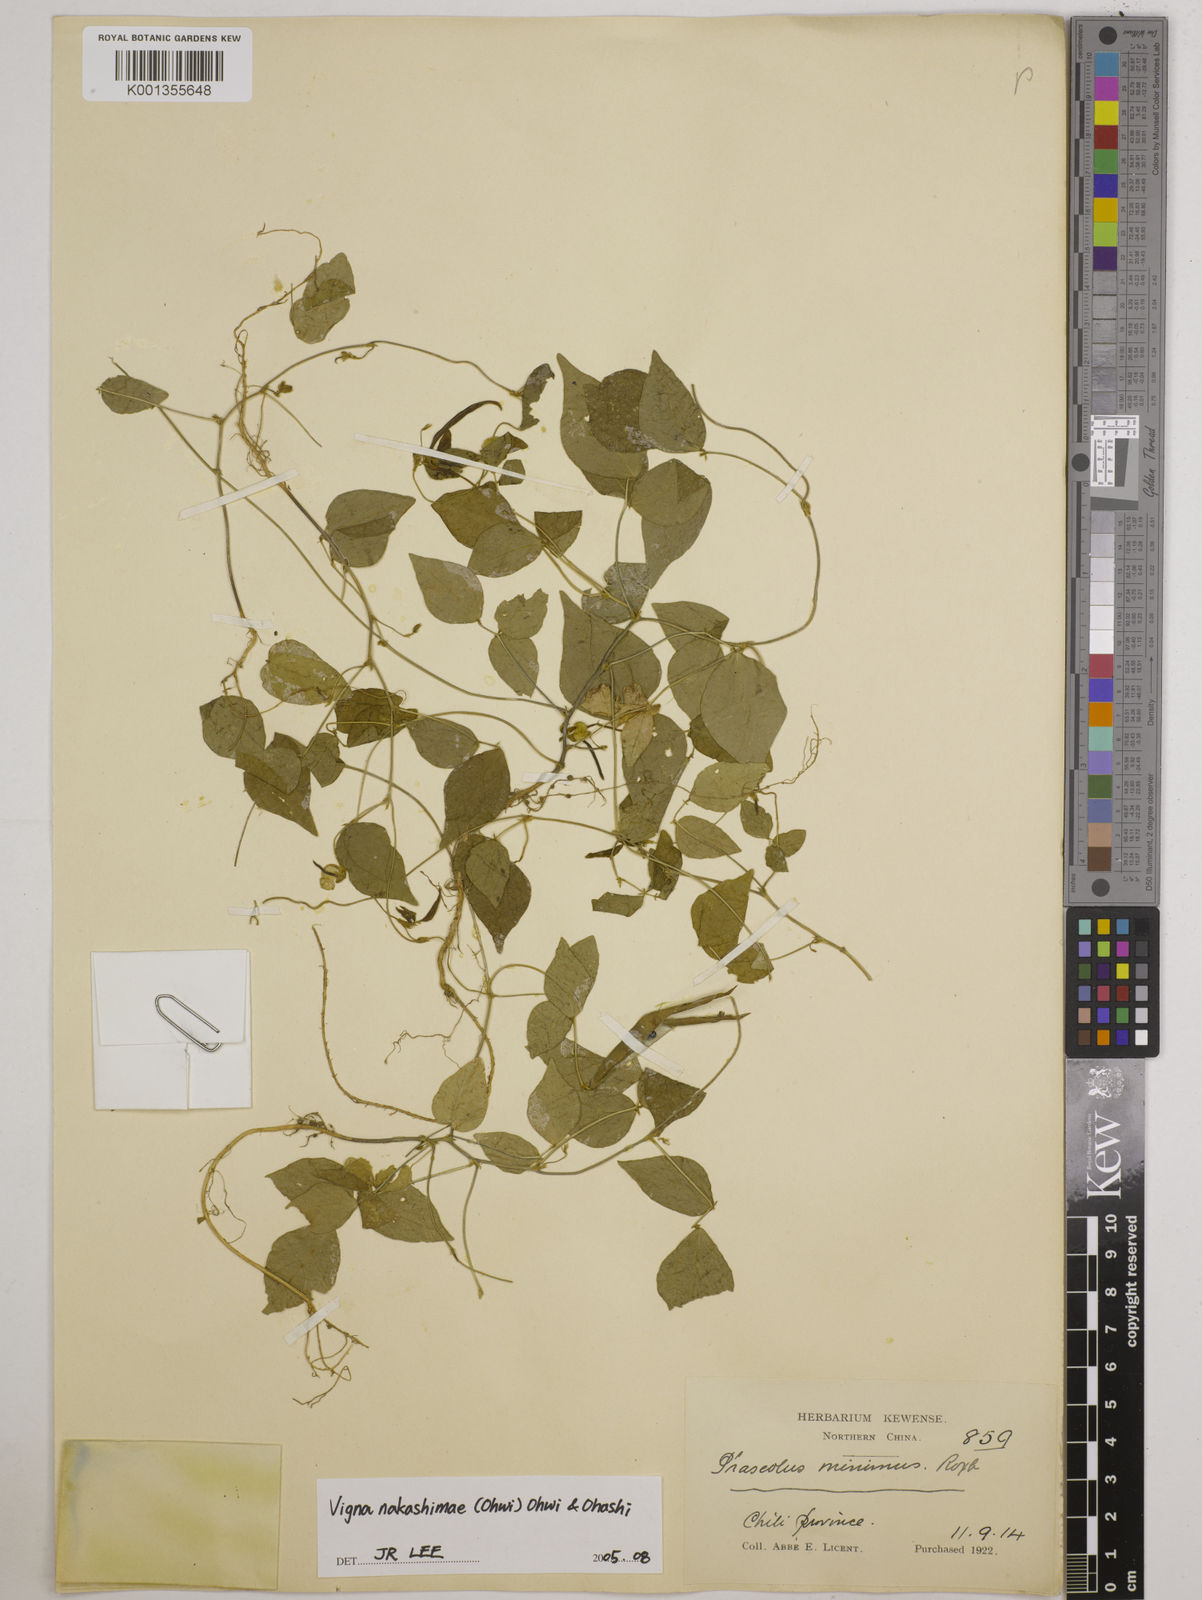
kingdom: Plantae
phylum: Tracheophyta
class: Magnoliopsida
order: Fabales
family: Fabaceae
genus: Vigna
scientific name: Vigna minima
